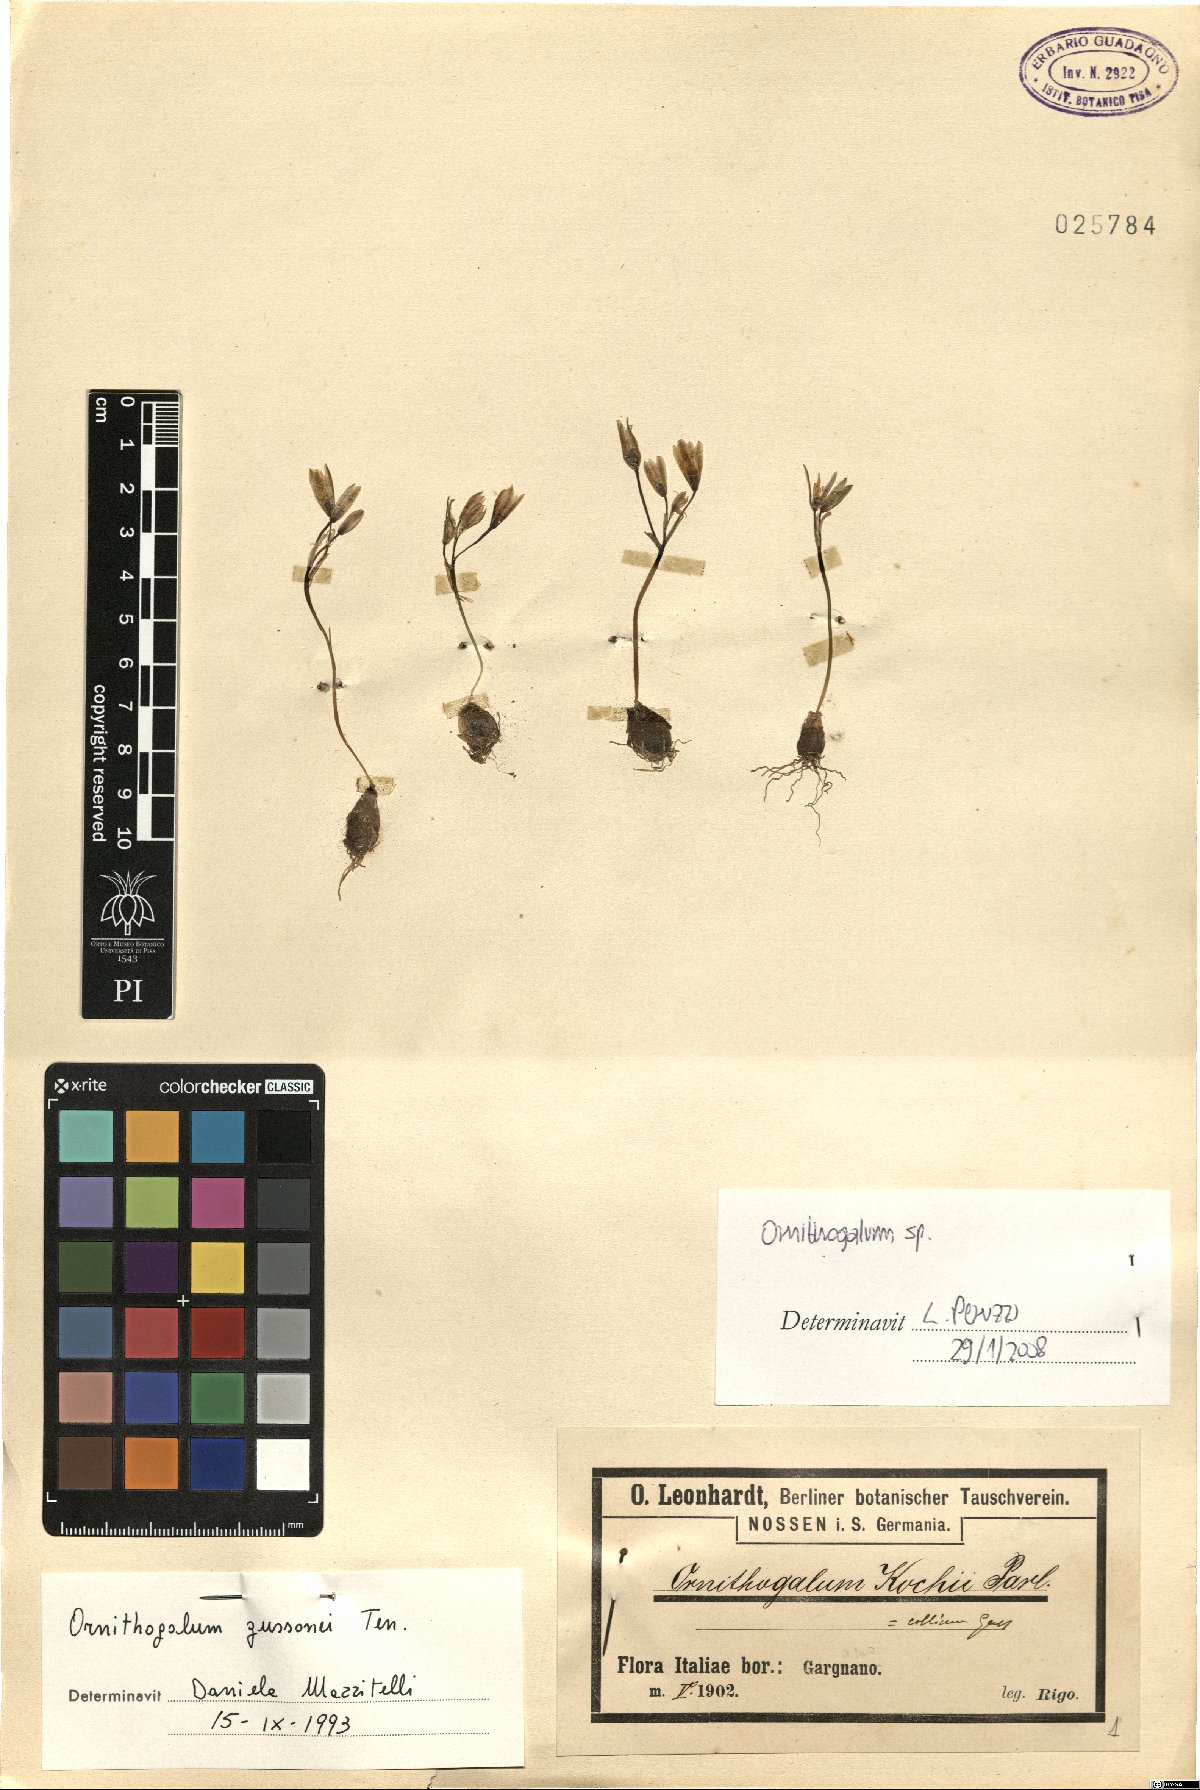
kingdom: Plantae
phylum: Tracheophyta
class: Liliopsida
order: Asparagales
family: Asparagaceae
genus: Ornithogalum
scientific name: Ornithogalum
